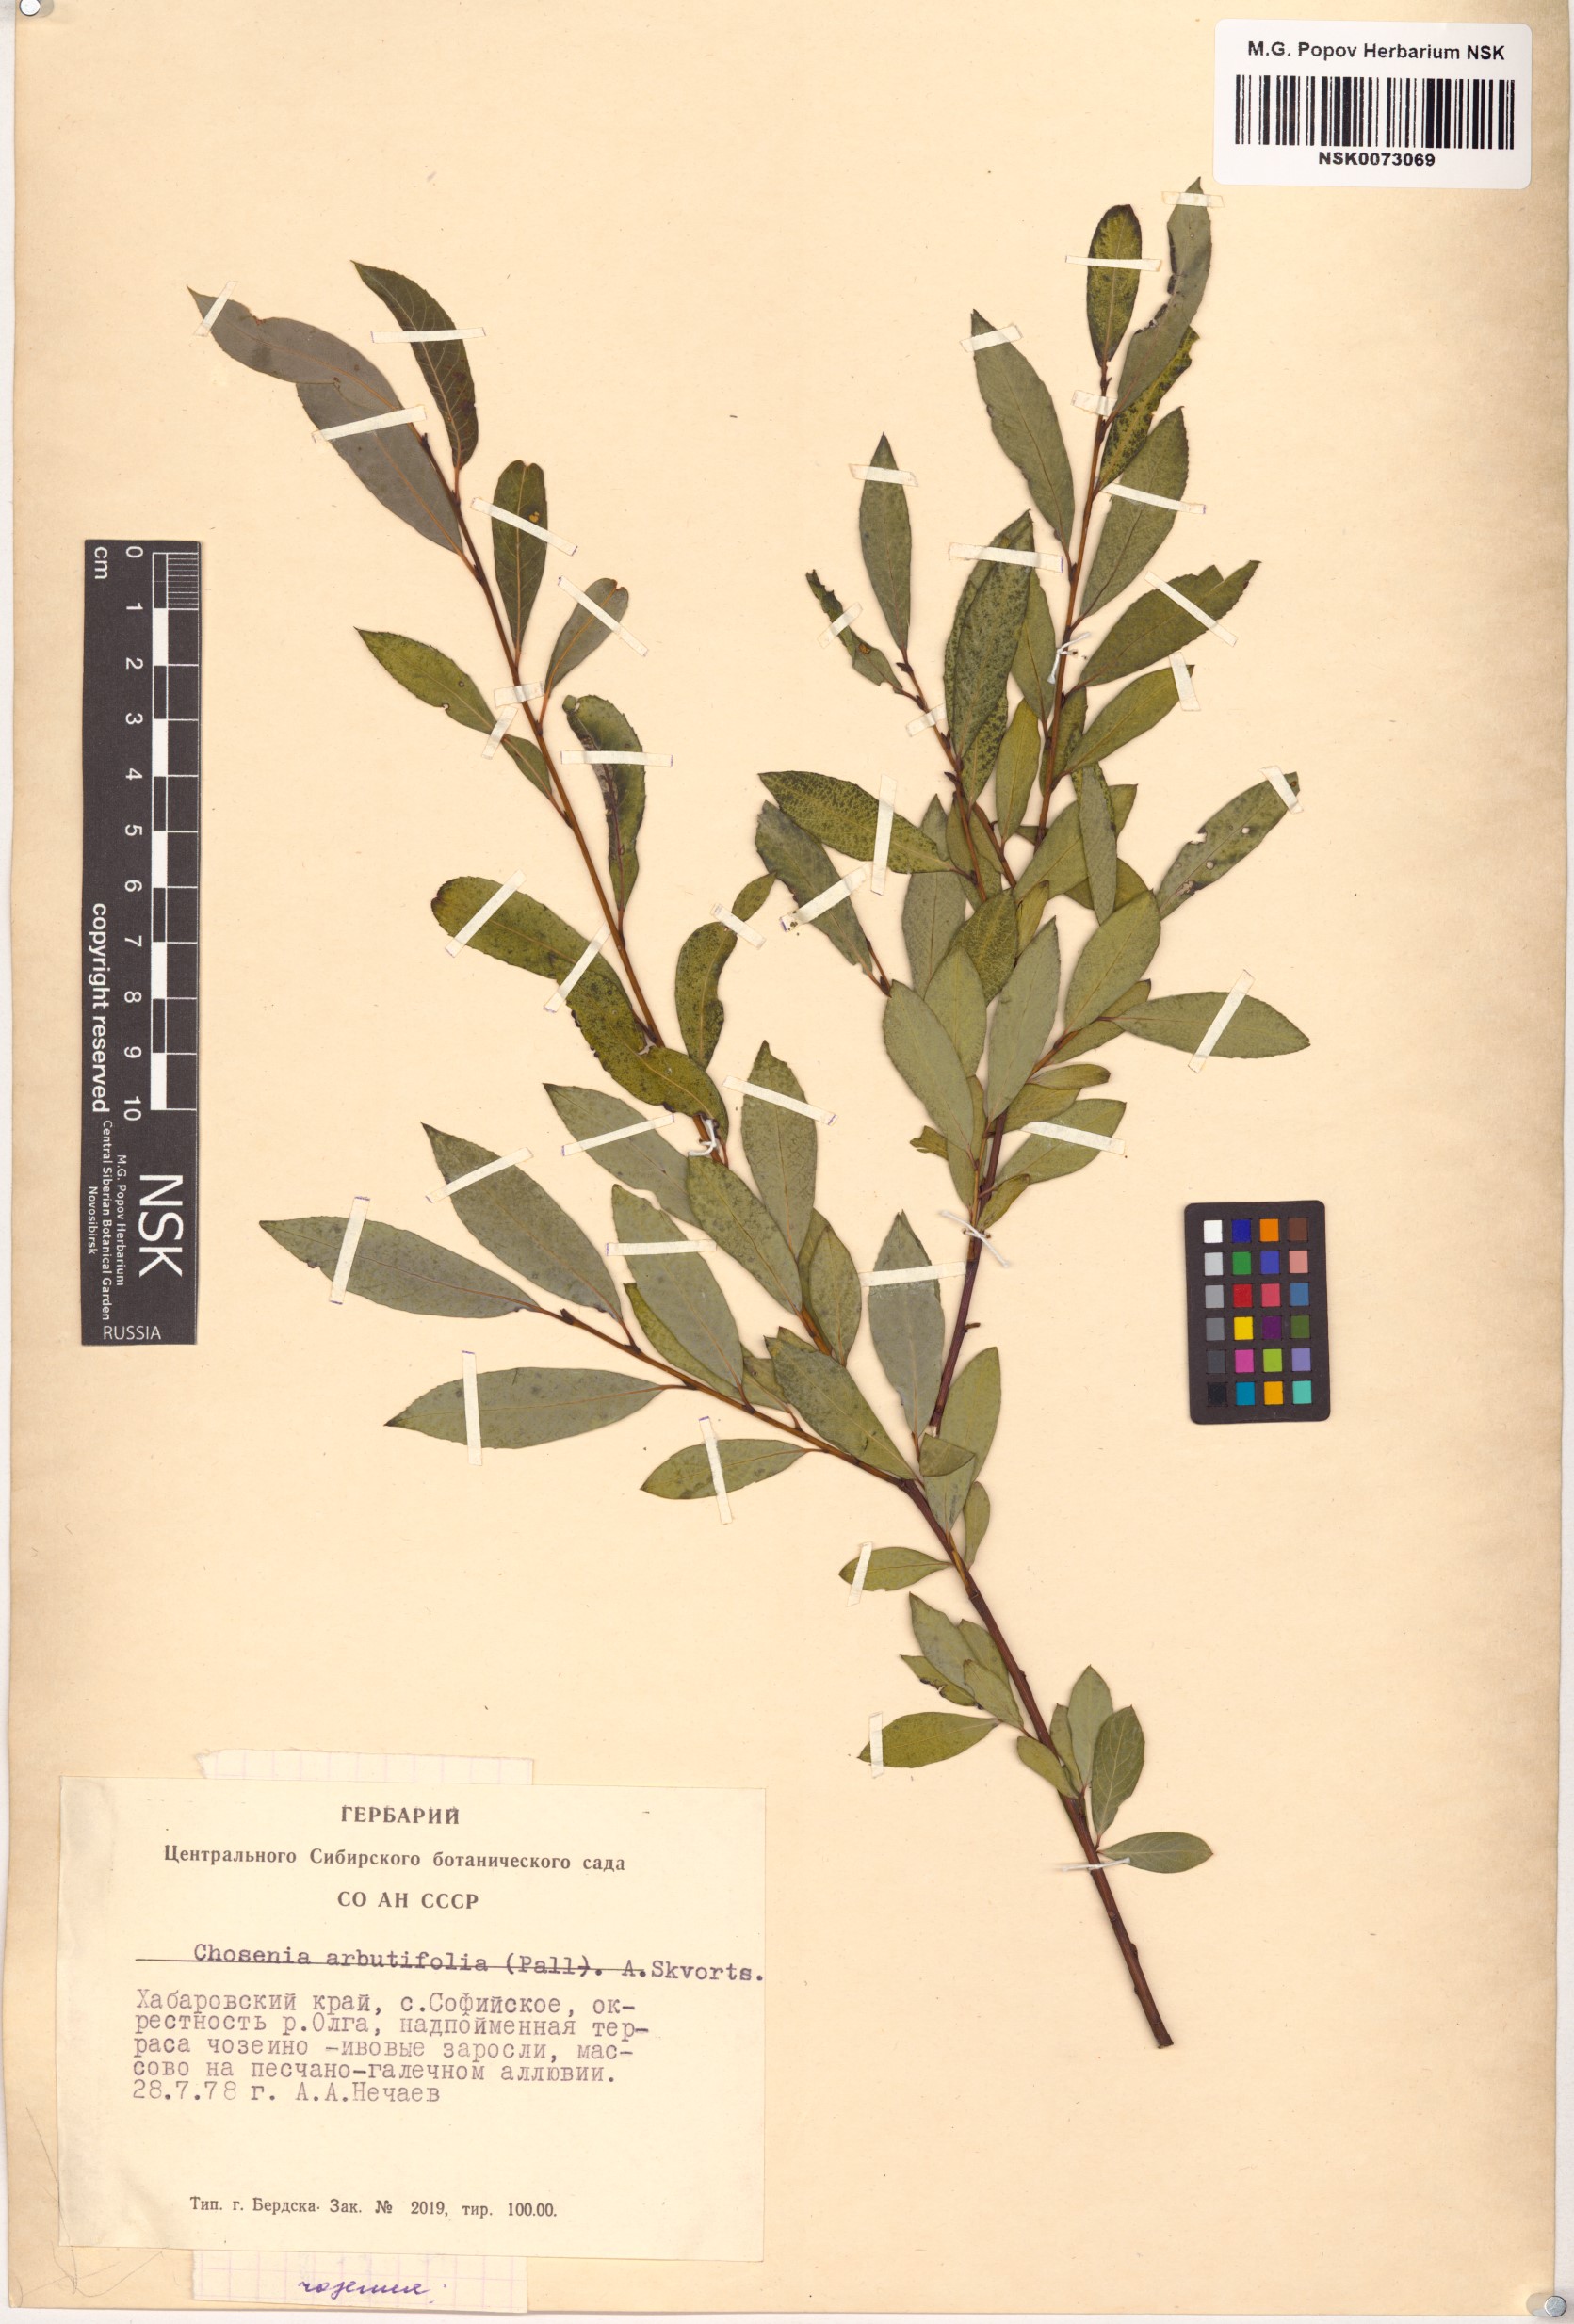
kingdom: Plantae
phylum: Tracheophyta
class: Magnoliopsida
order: Malpighiales
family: Salicaceae
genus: Chosenia
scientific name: Chosenia arbutifolia
